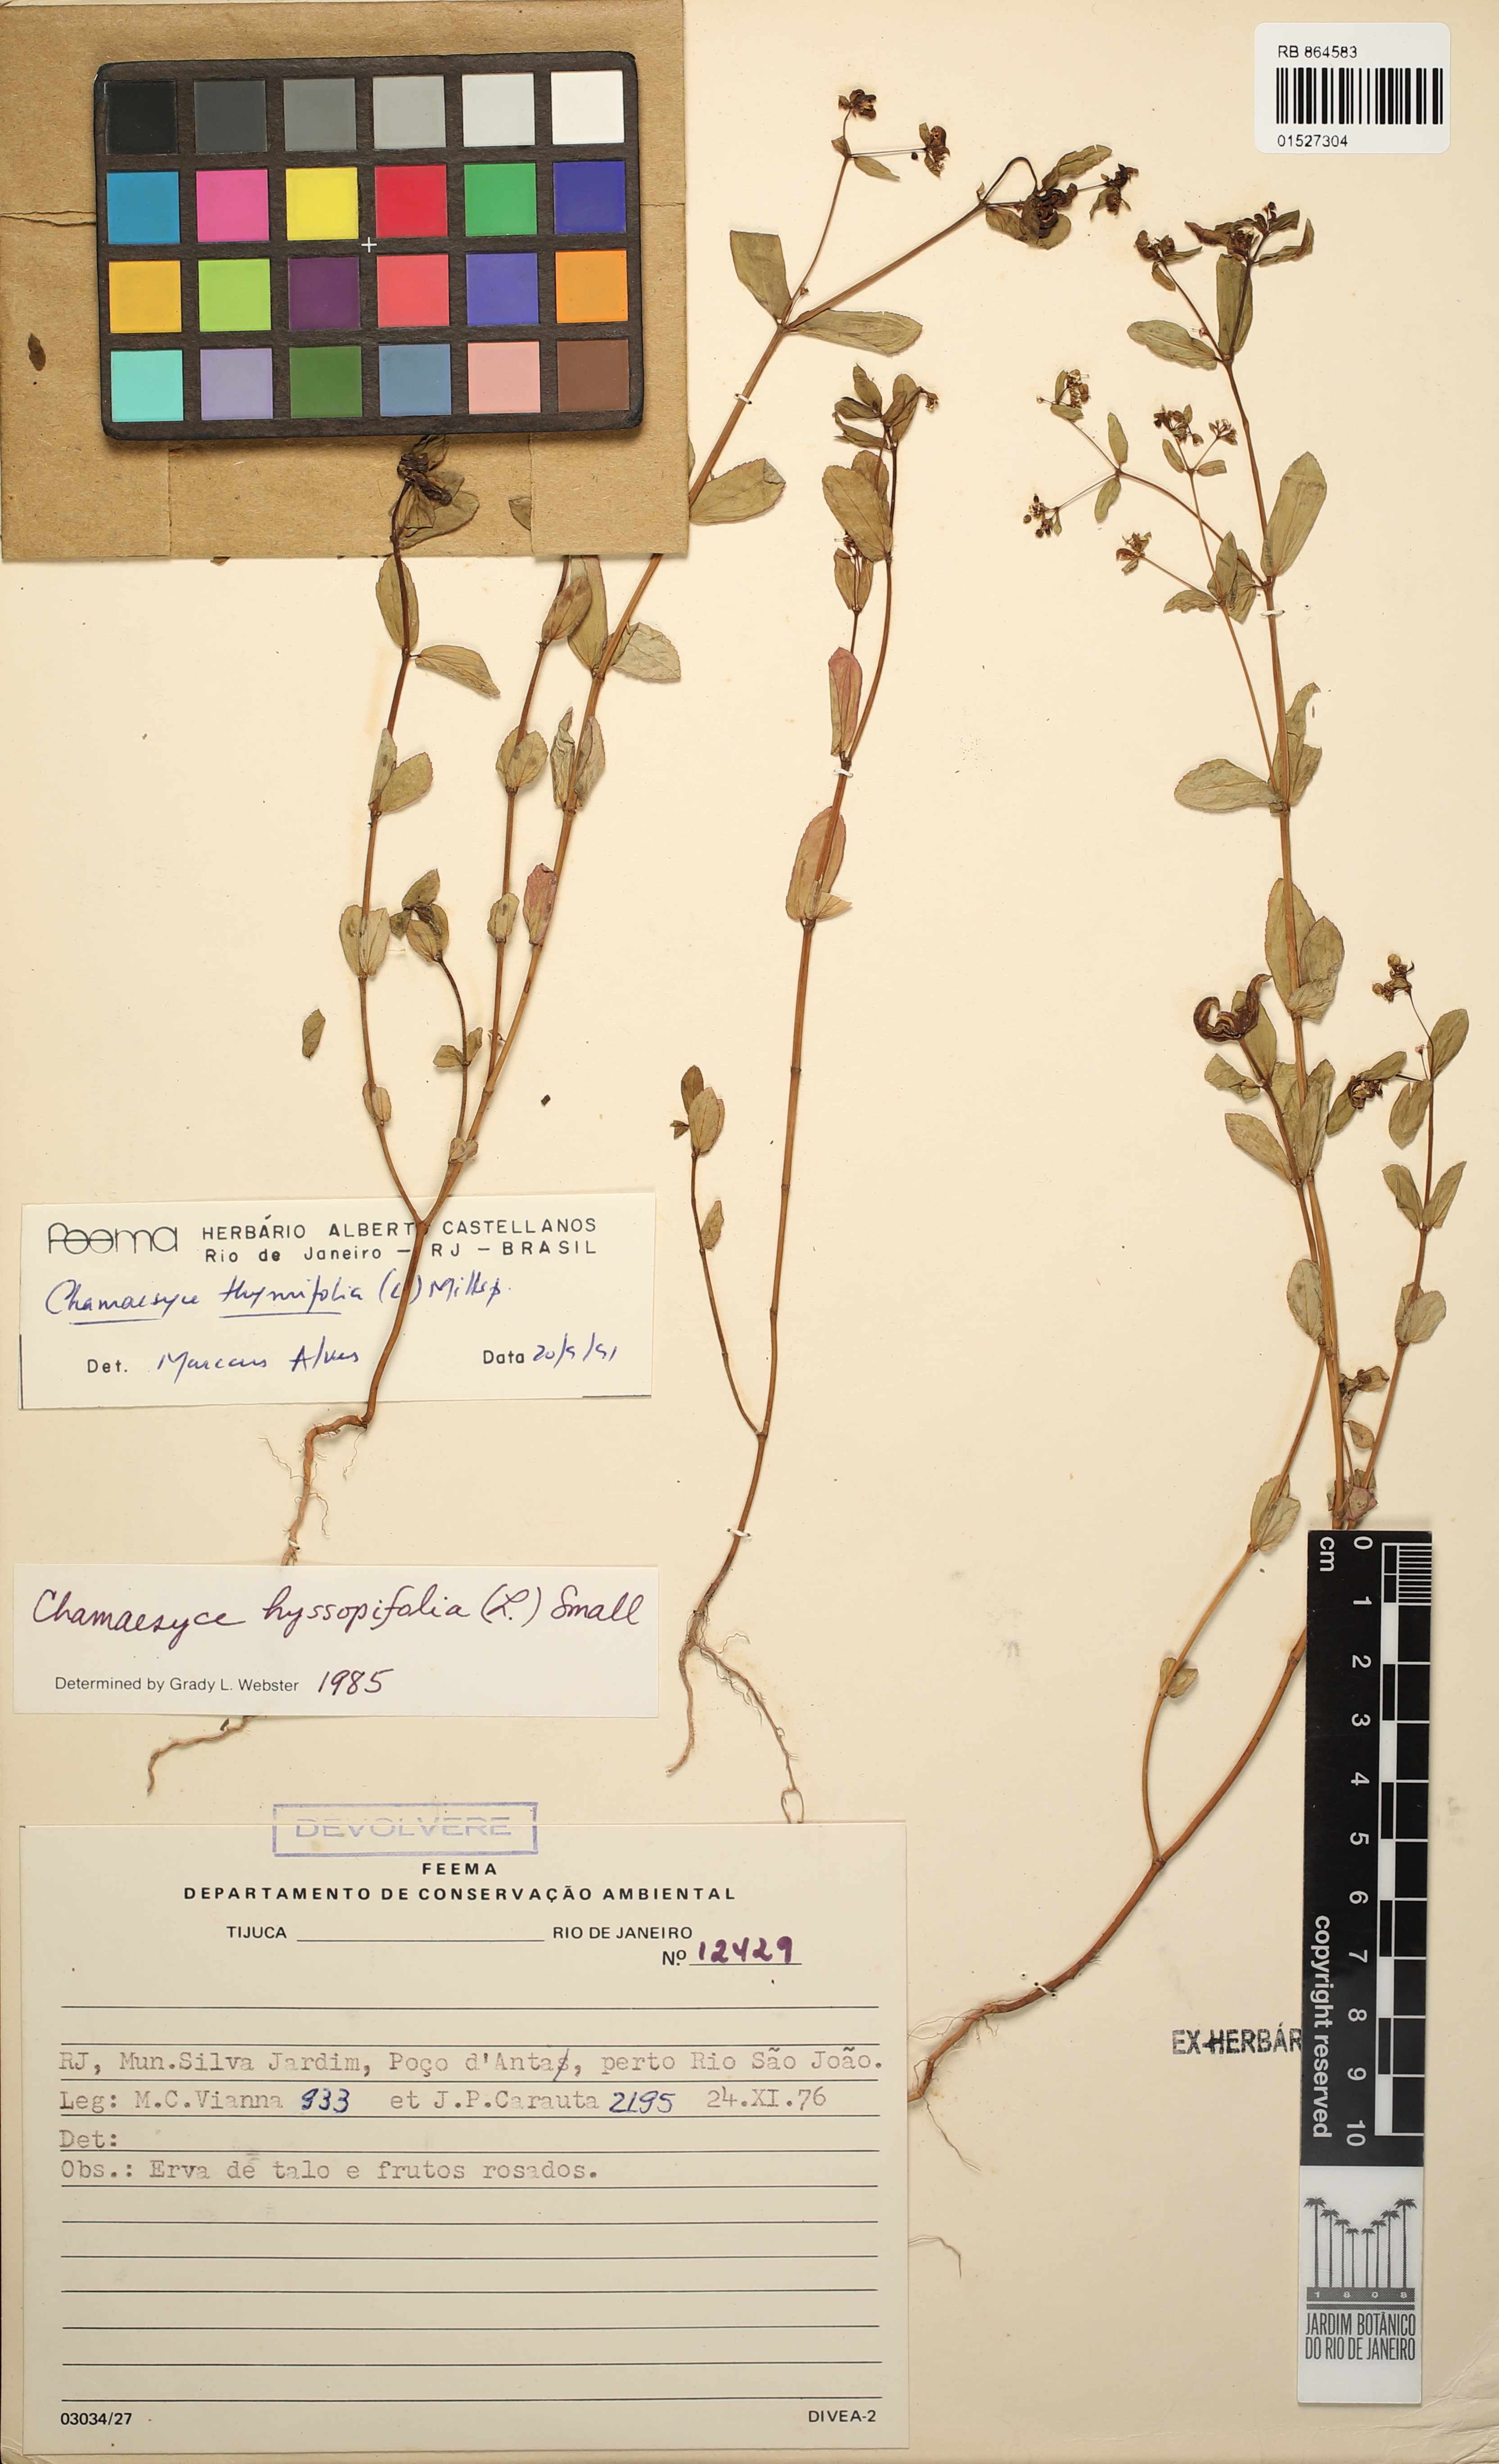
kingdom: Plantae
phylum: Tracheophyta
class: Magnoliopsida
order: Malpighiales
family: Euphorbiaceae
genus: Euphorbia
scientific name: Euphorbia thymifolia
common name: Gulf sandmat
